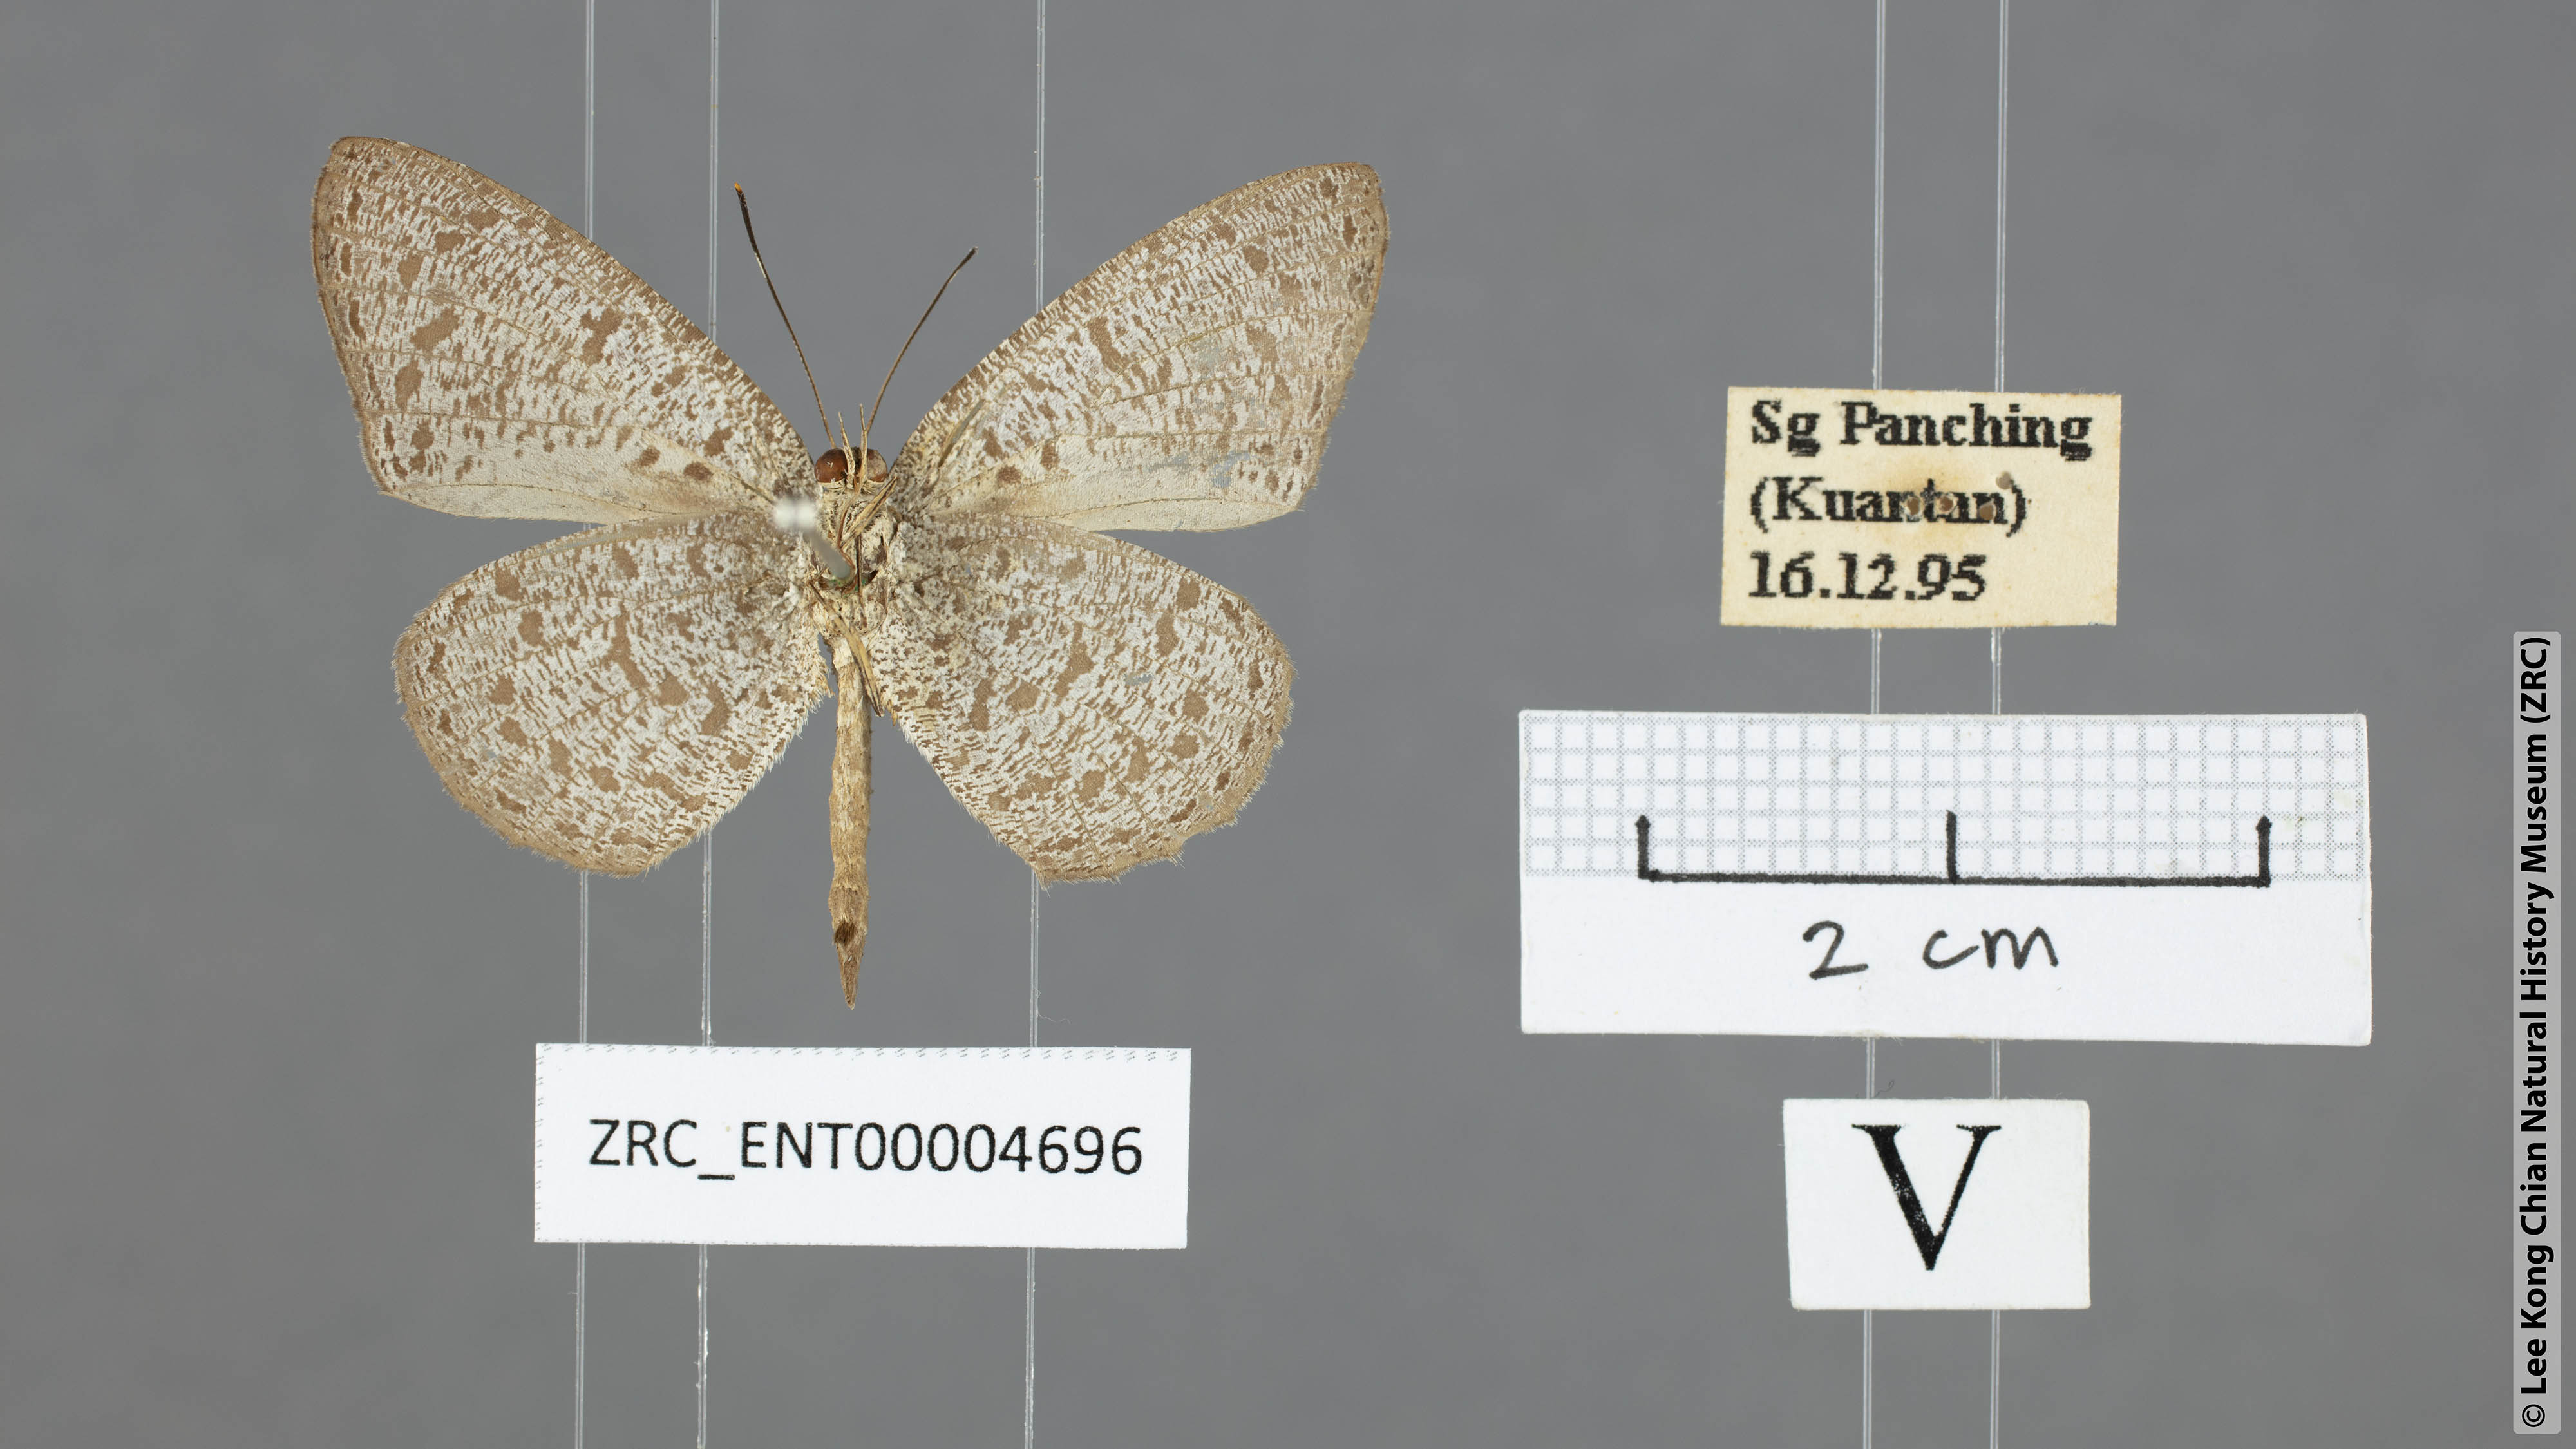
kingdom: Animalia
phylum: Arthropoda
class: Insecta
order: Lepidoptera
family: Lycaenidae
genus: Allotinus
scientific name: Allotinus leogoron
